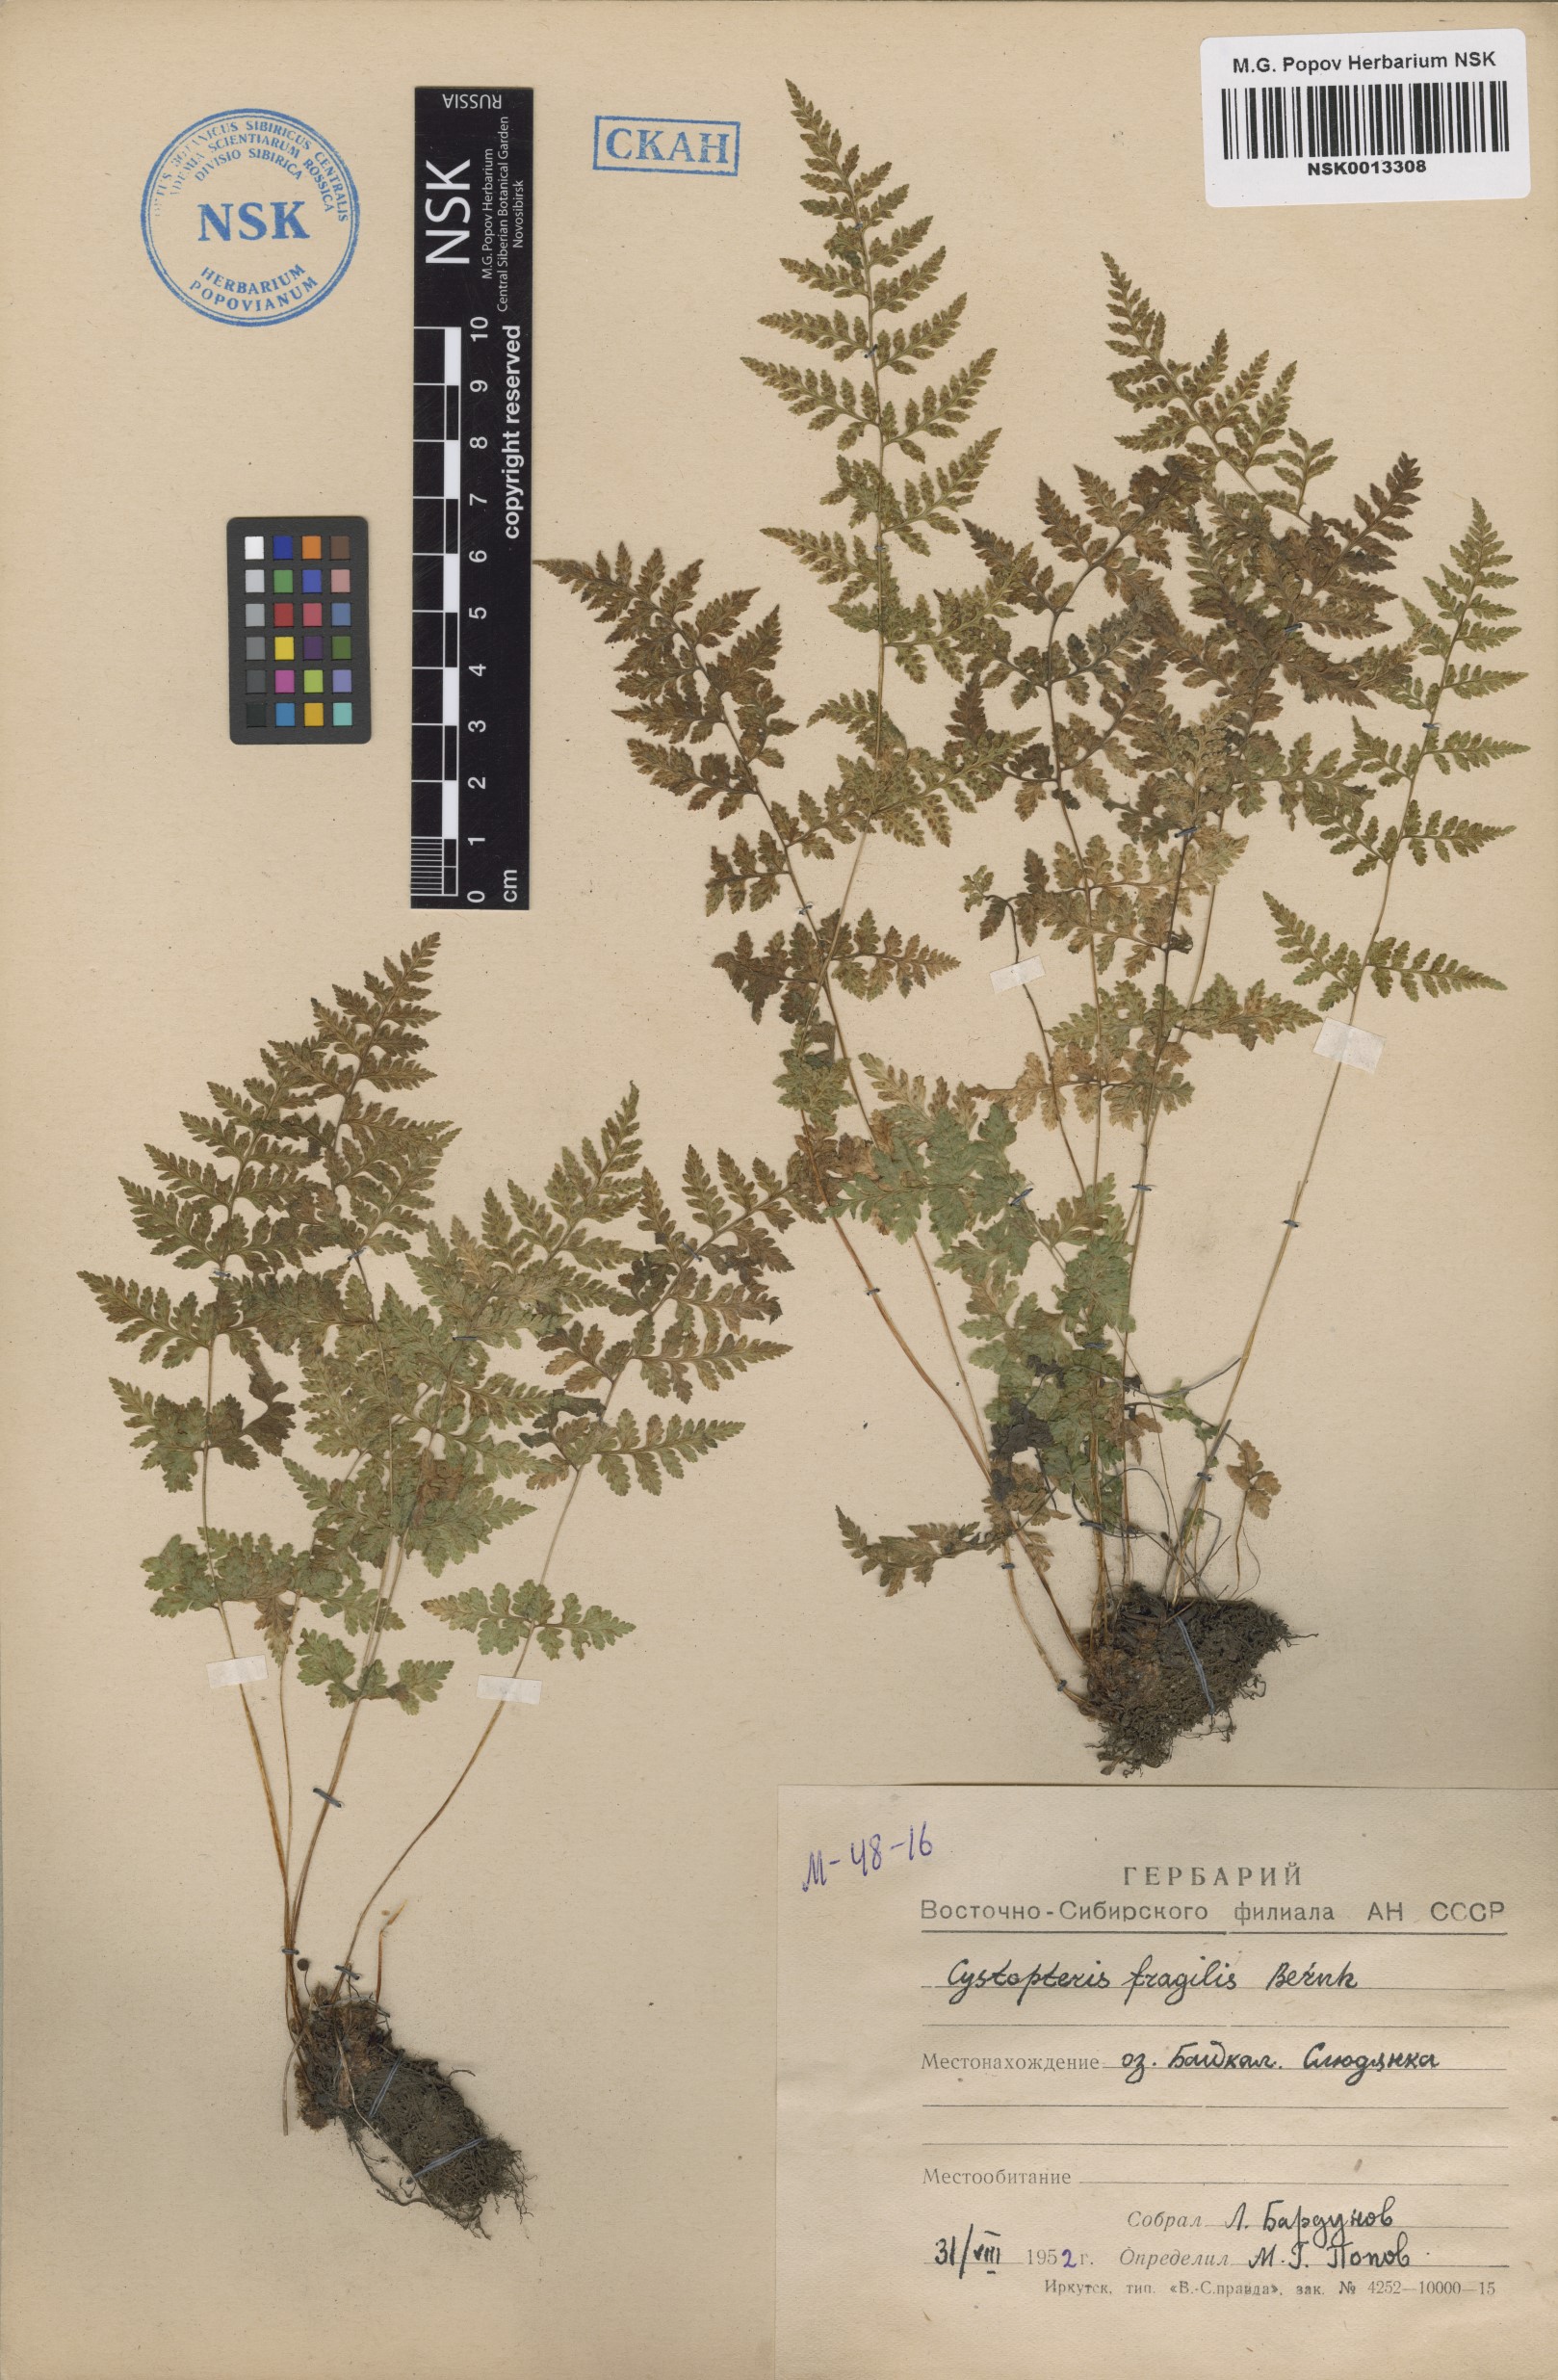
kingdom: Plantae
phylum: Tracheophyta
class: Polypodiopsida
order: Polypodiales
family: Cystopteridaceae
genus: Cystopteris
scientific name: Cystopteris fragilis
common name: Brittle bladder fern
